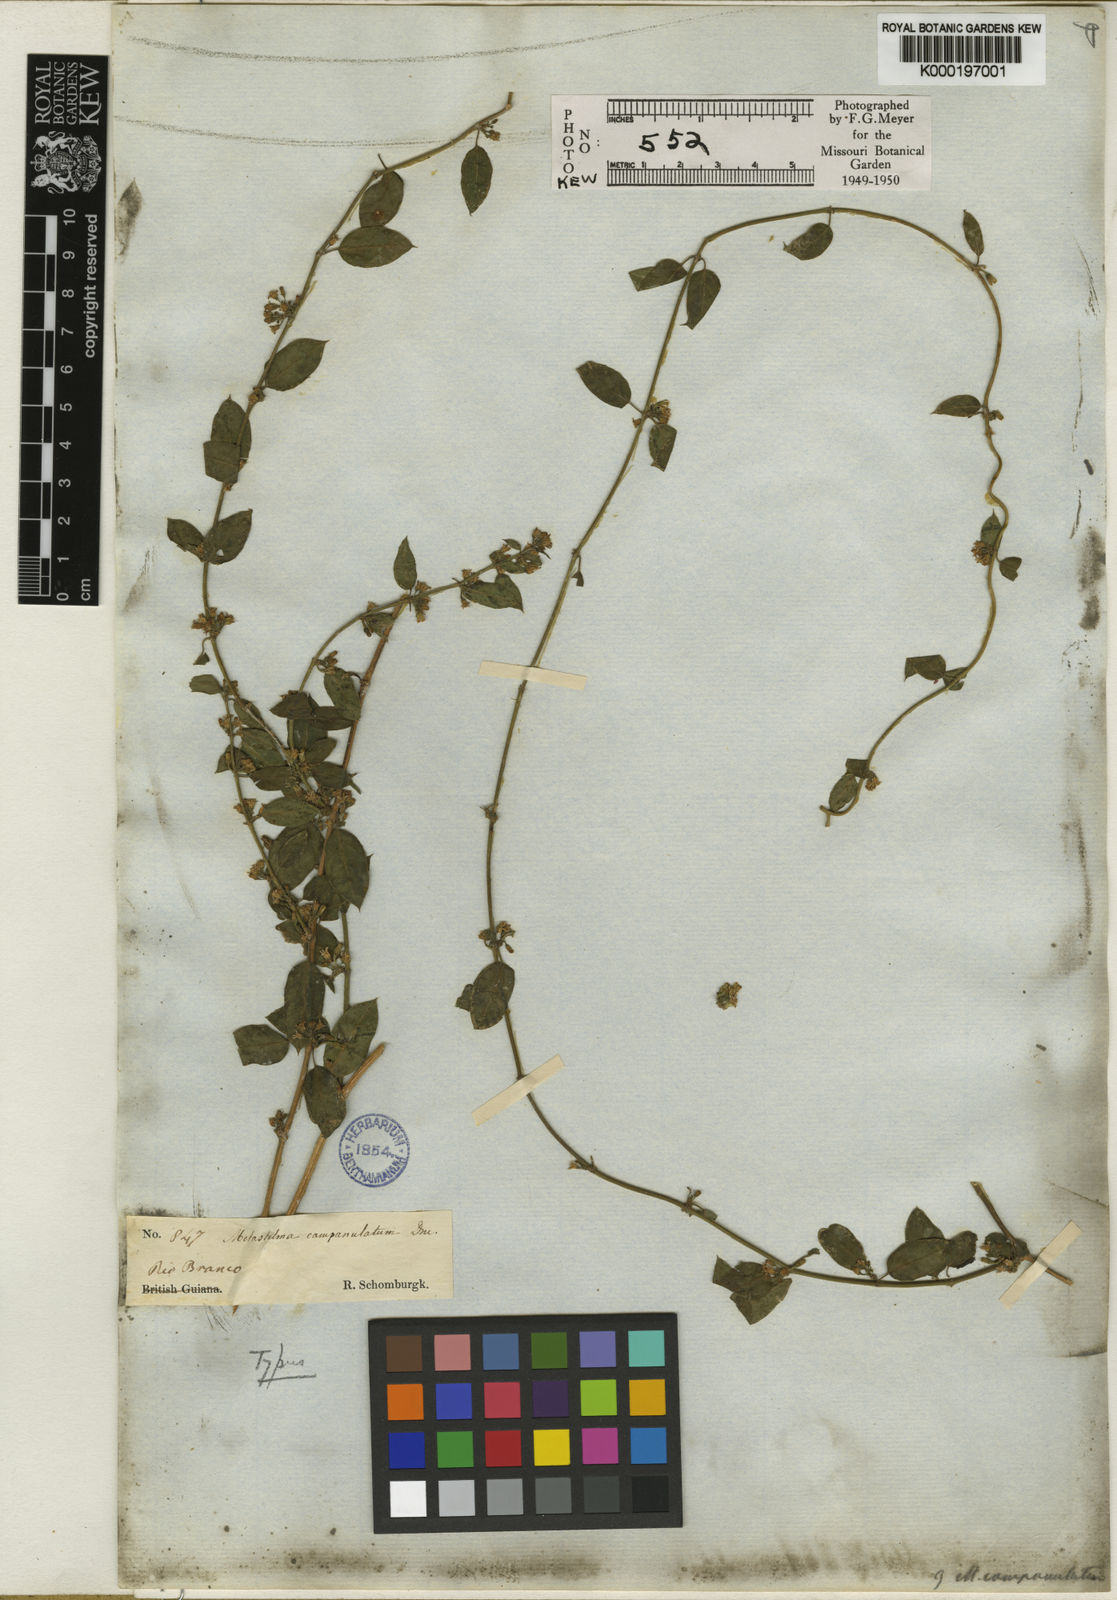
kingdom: Plantae
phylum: Tracheophyta
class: Magnoliopsida
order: Gentianales
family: Apocynaceae
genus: Metastelma
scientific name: Metastelma parviflorum
